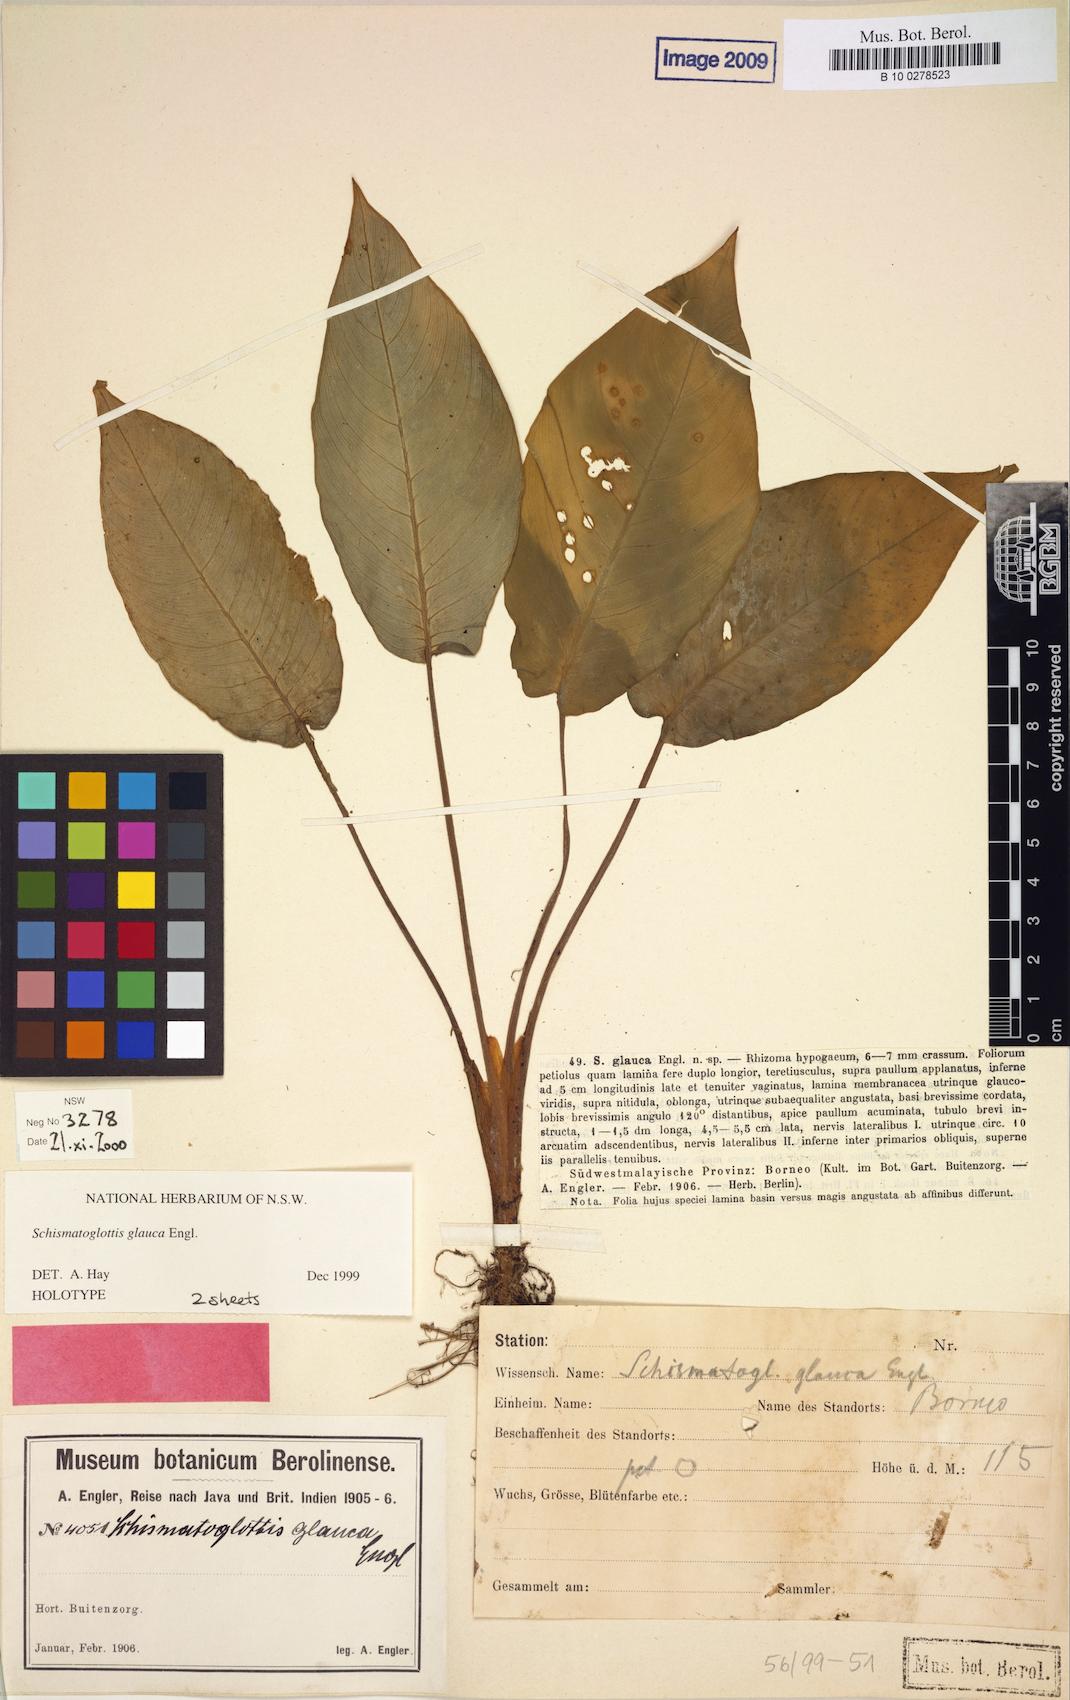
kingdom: Plantae
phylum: Tracheophyta
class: Liliopsida
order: Alismatales
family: Araceae
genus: Schismatoglottis
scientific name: Schismatoglottis glauca
